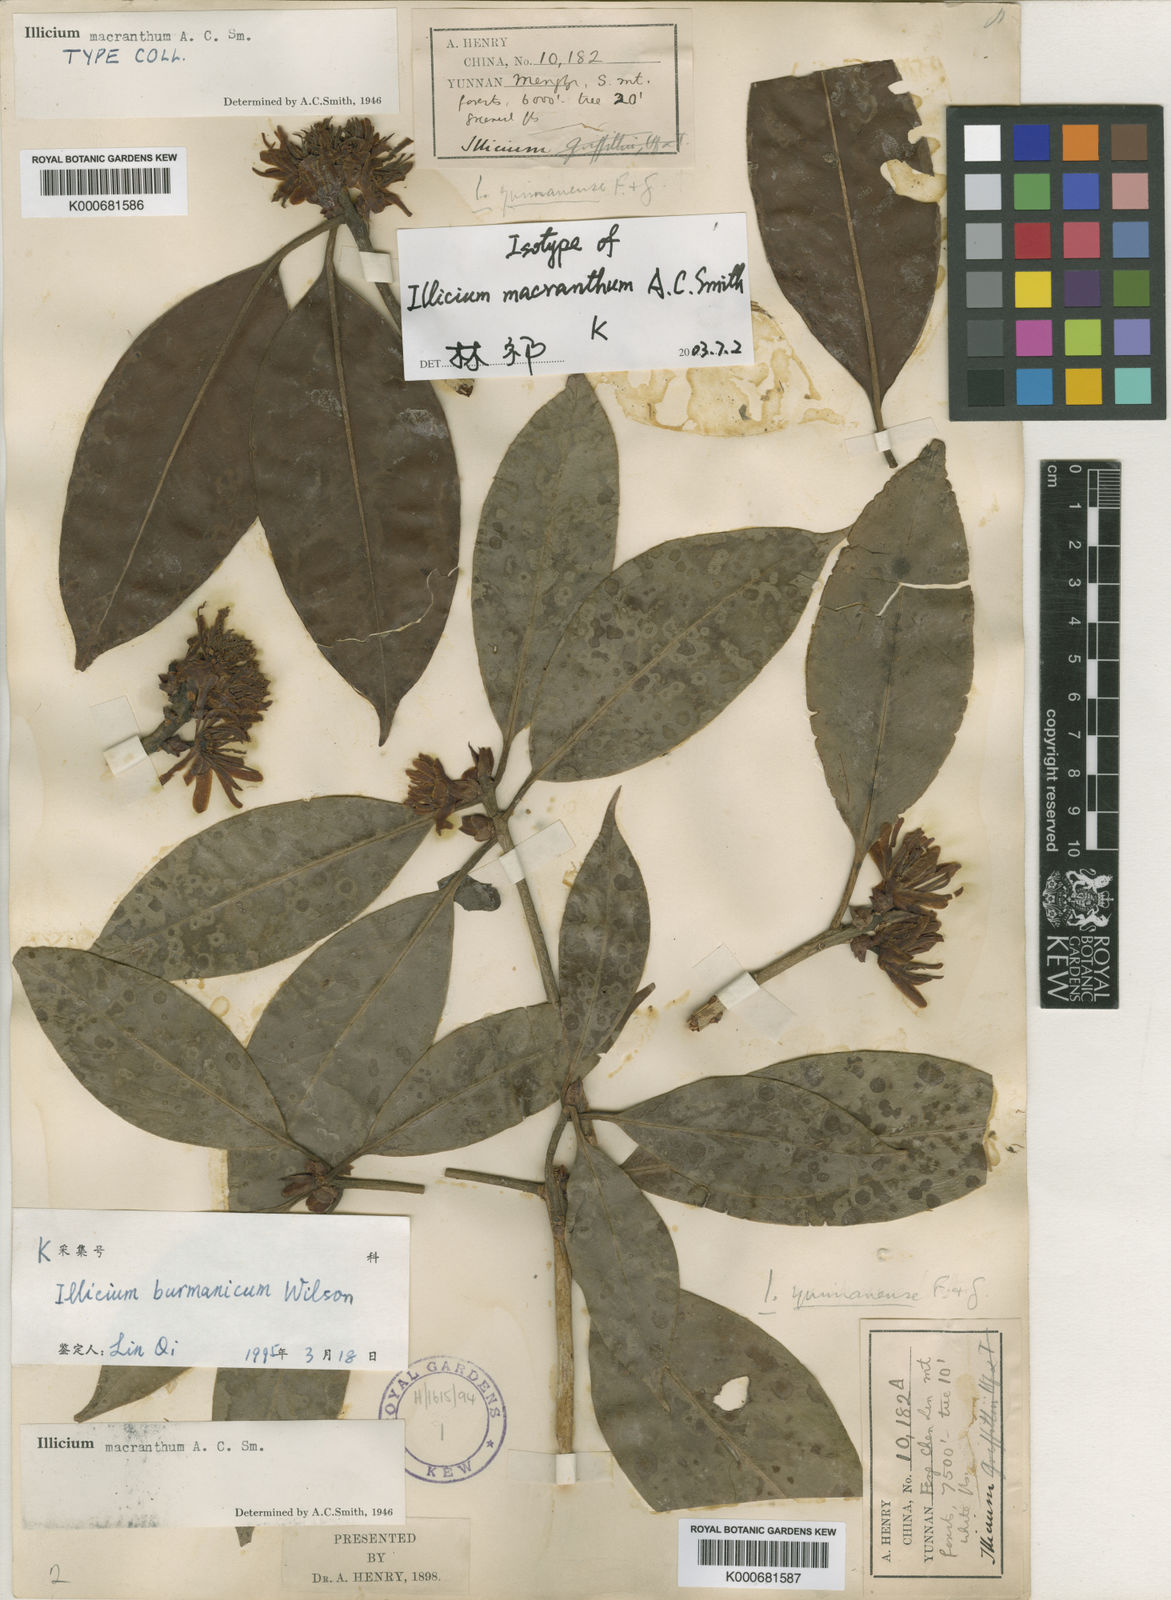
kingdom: Plantae
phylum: Tracheophyta
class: Magnoliopsida
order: Austrobaileyales
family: Schisandraceae
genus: Illicium
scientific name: Illicium macranthum
